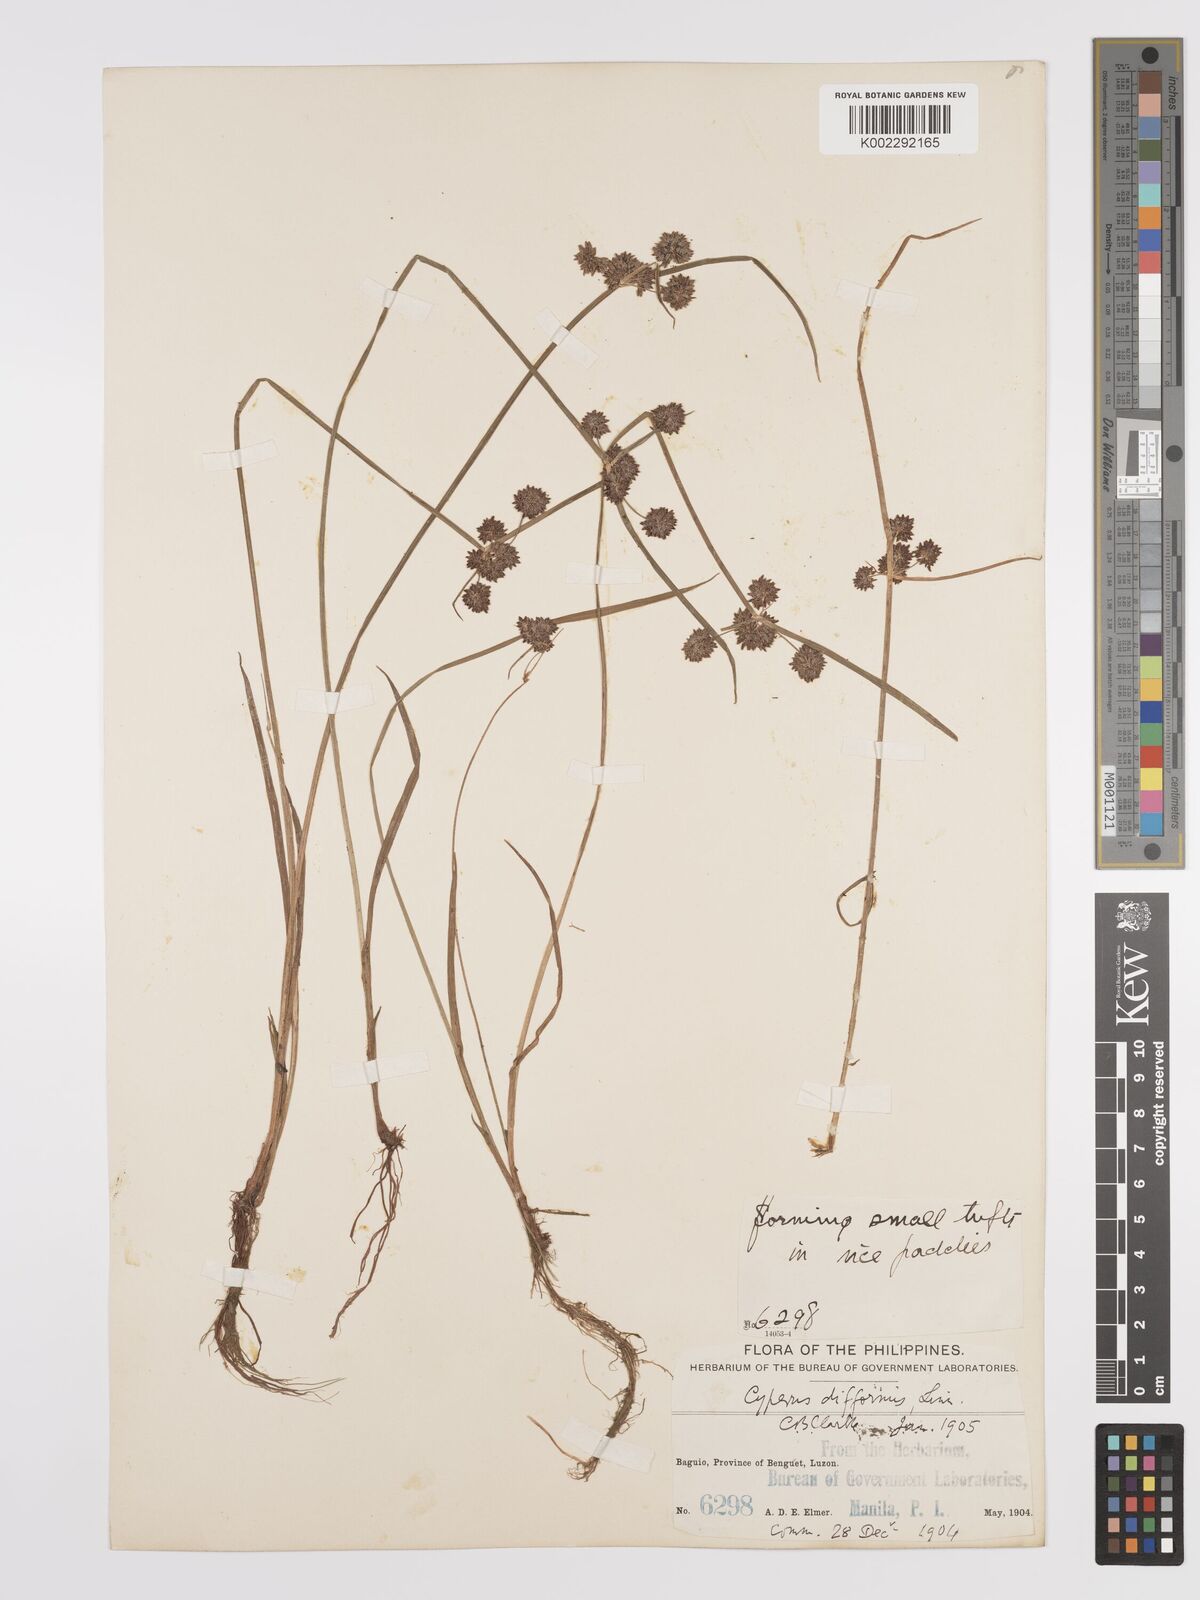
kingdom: Plantae
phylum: Tracheophyta
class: Liliopsida
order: Poales
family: Cyperaceae
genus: Cyperus
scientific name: Cyperus difformis
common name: Variable flatsedge
